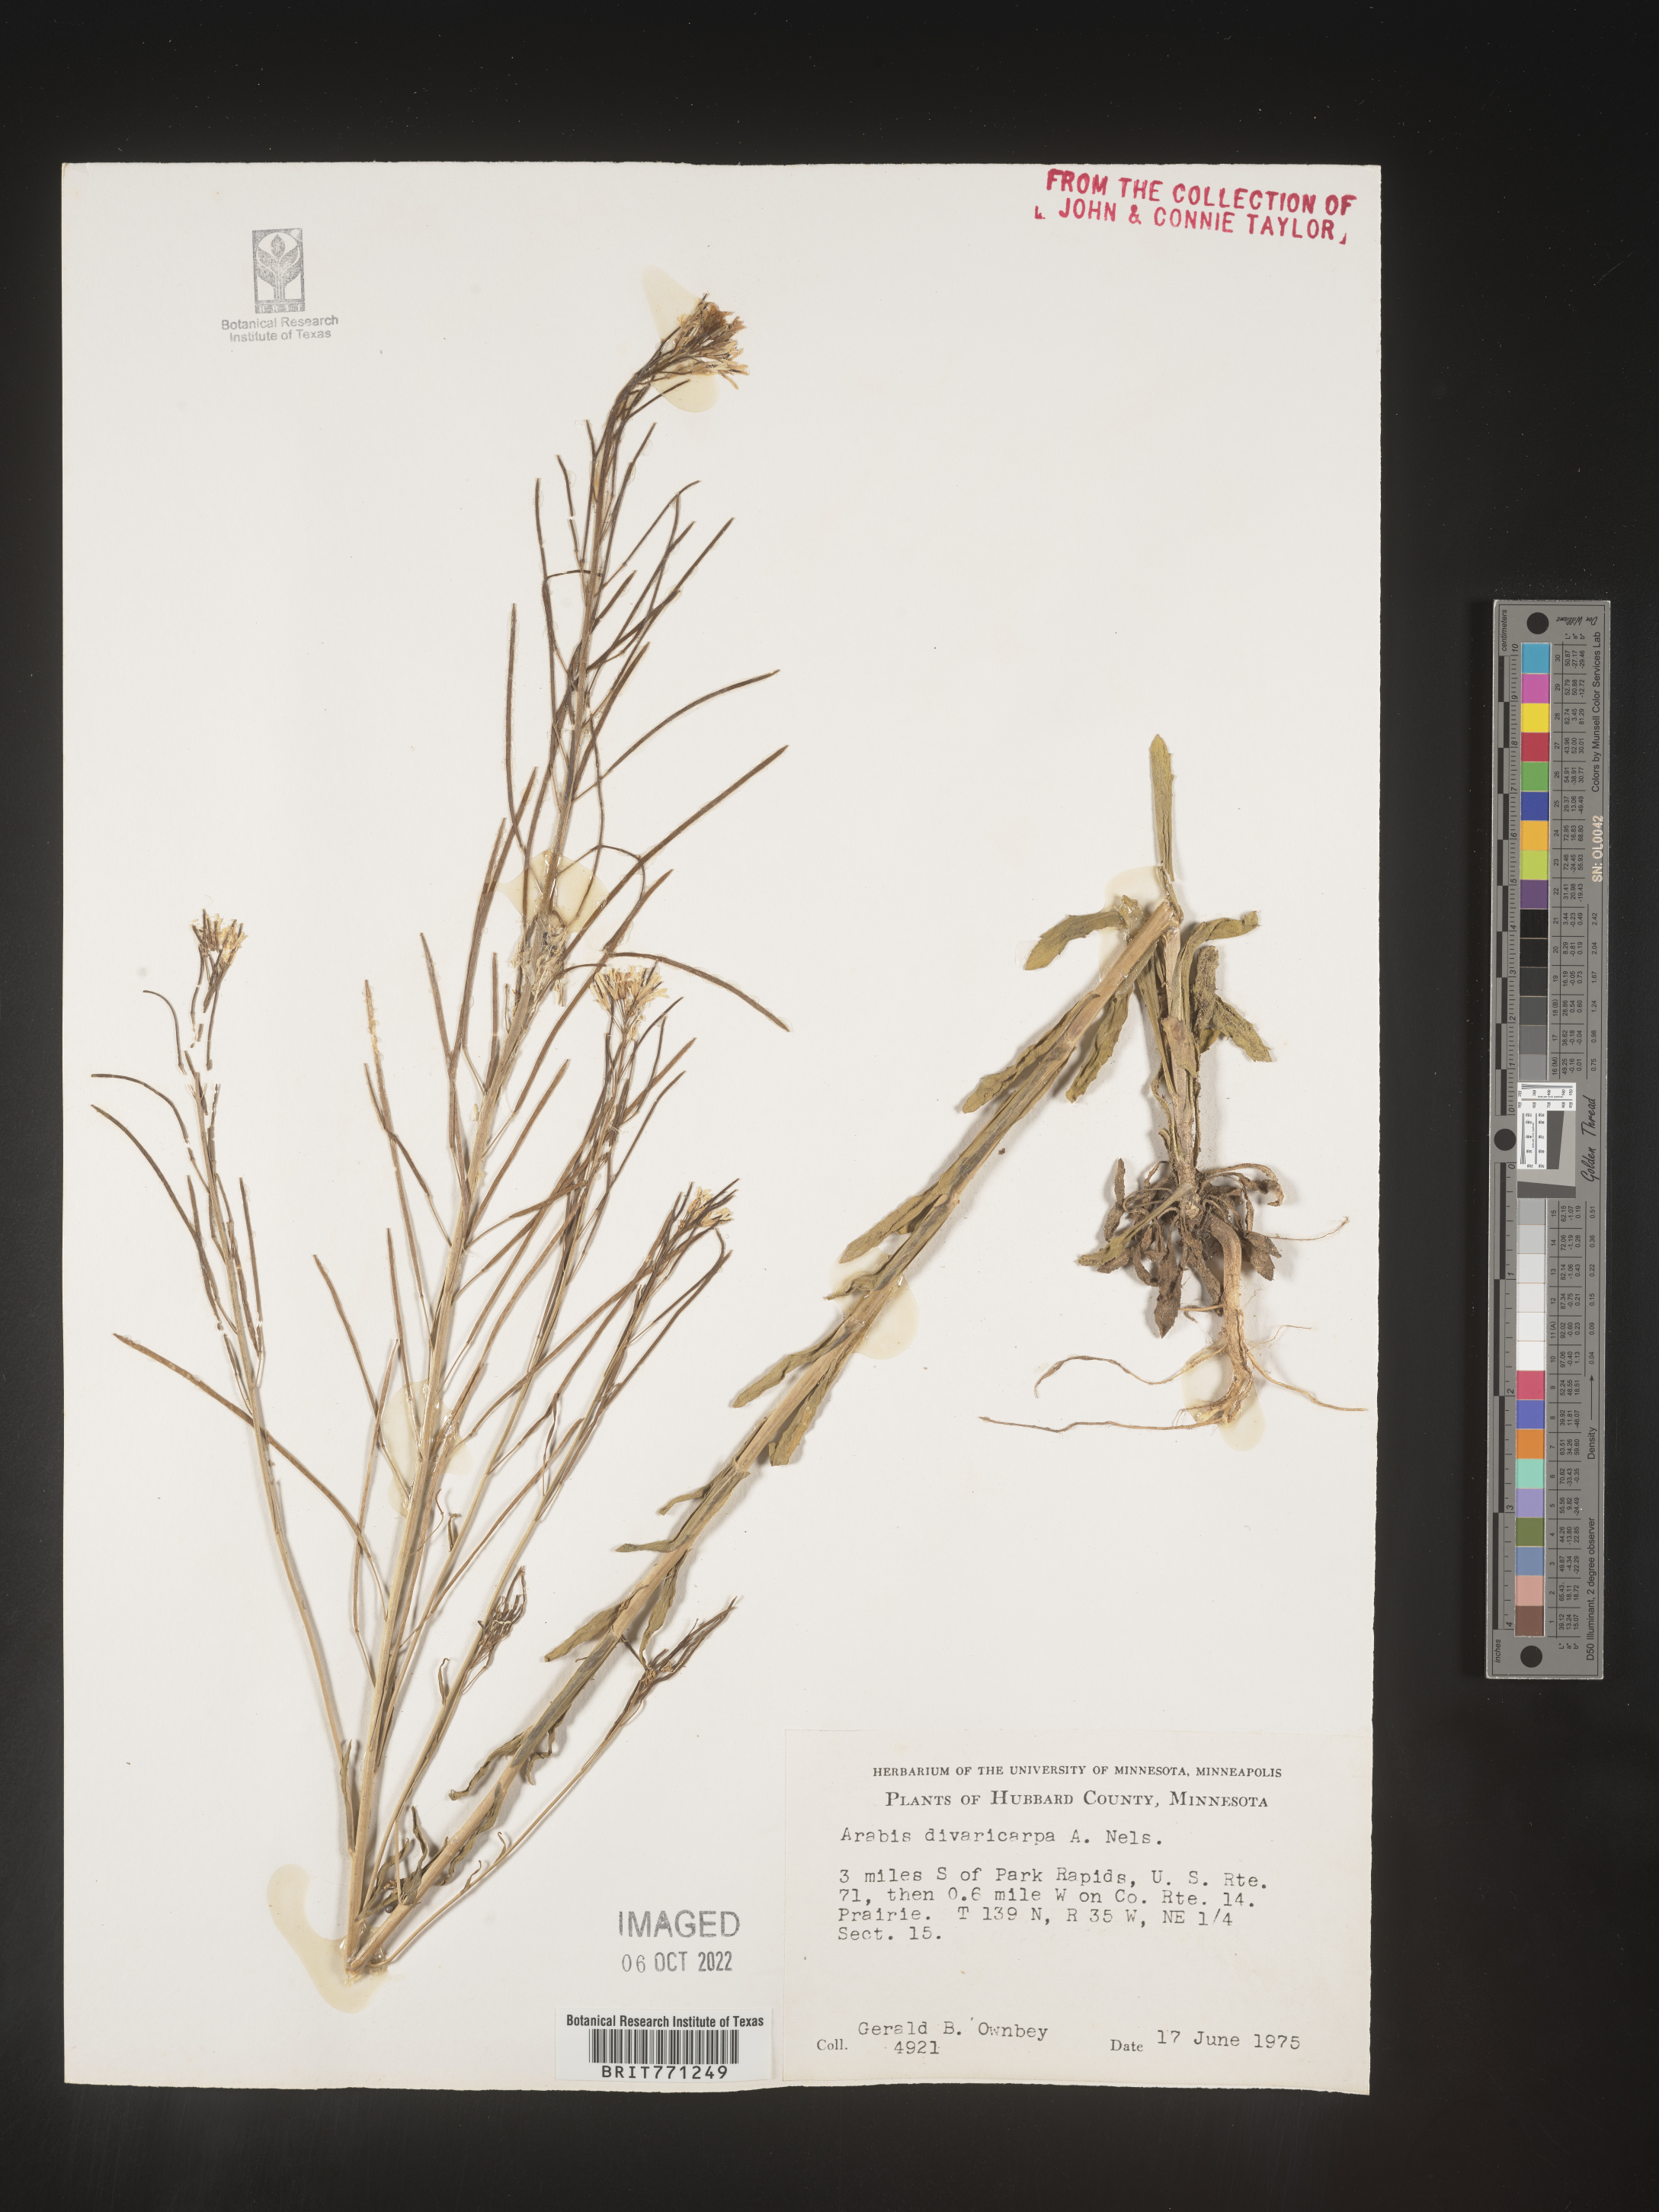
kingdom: Plantae
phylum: Tracheophyta
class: Magnoliopsida
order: Brassicales
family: Brassicaceae
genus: Boechera
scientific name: Boechera divaricarpa
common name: Divaricate rockcress
